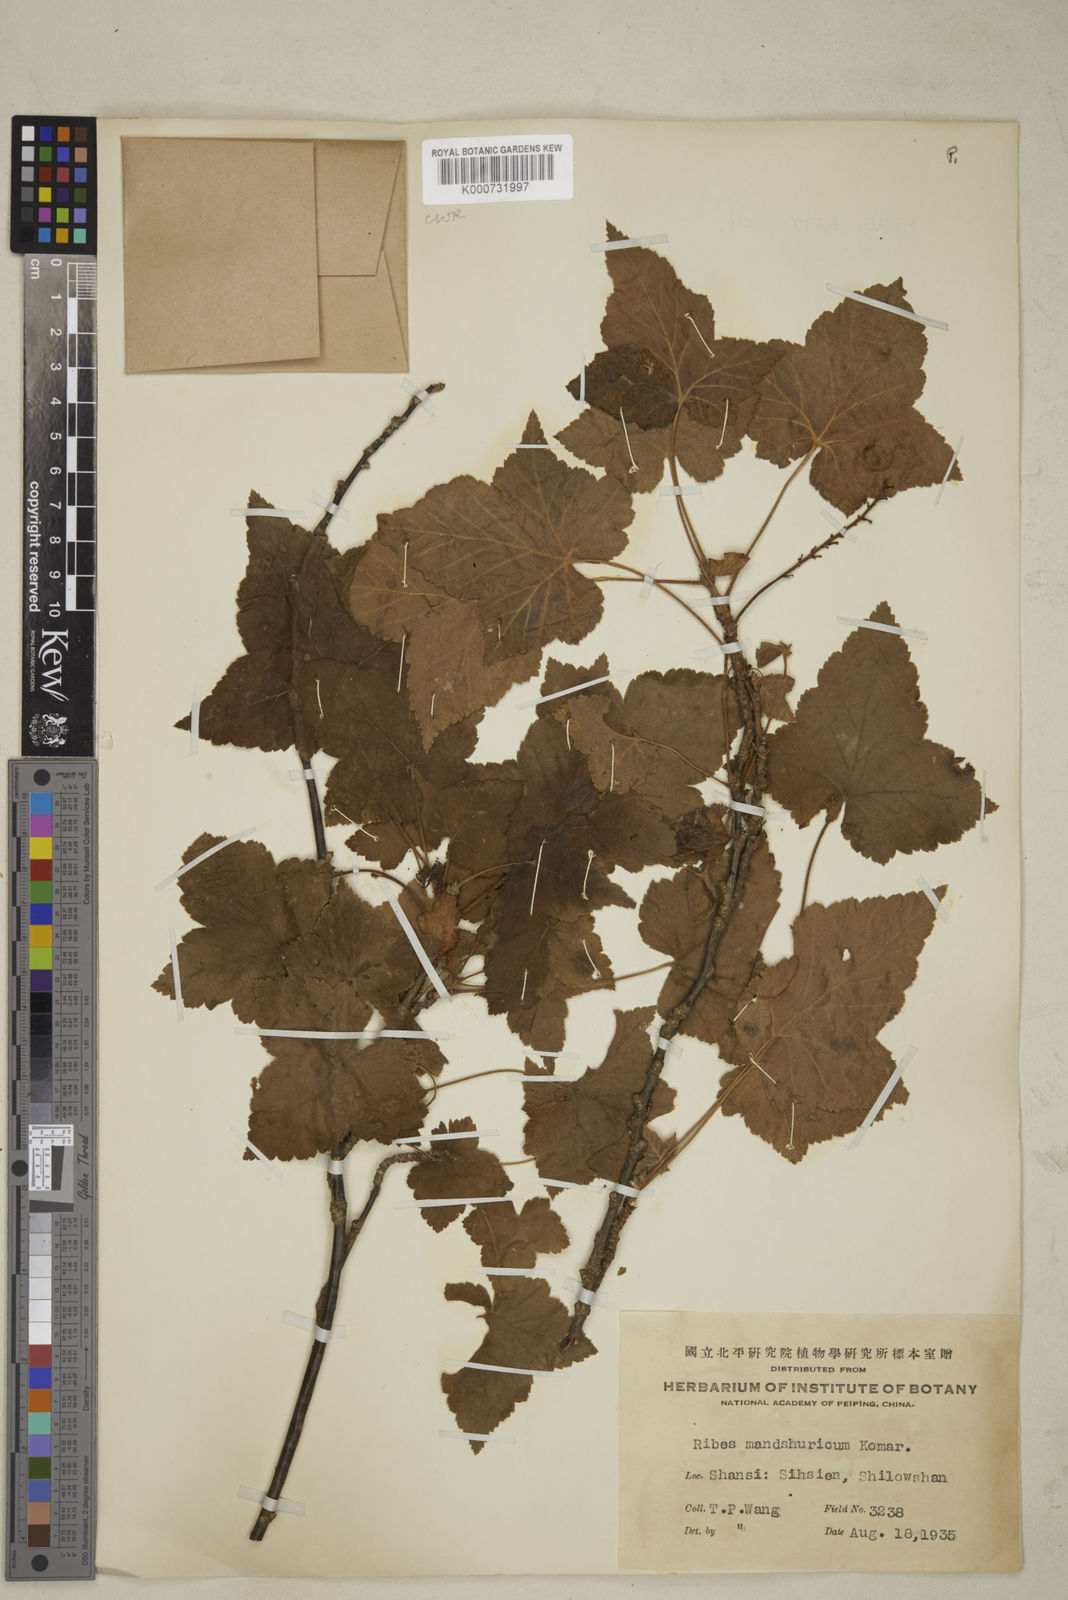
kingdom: Plantae
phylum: Tracheophyta
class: Magnoliopsida
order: Saxifragales
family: Grossulariaceae
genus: Ribes
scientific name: Ribes
